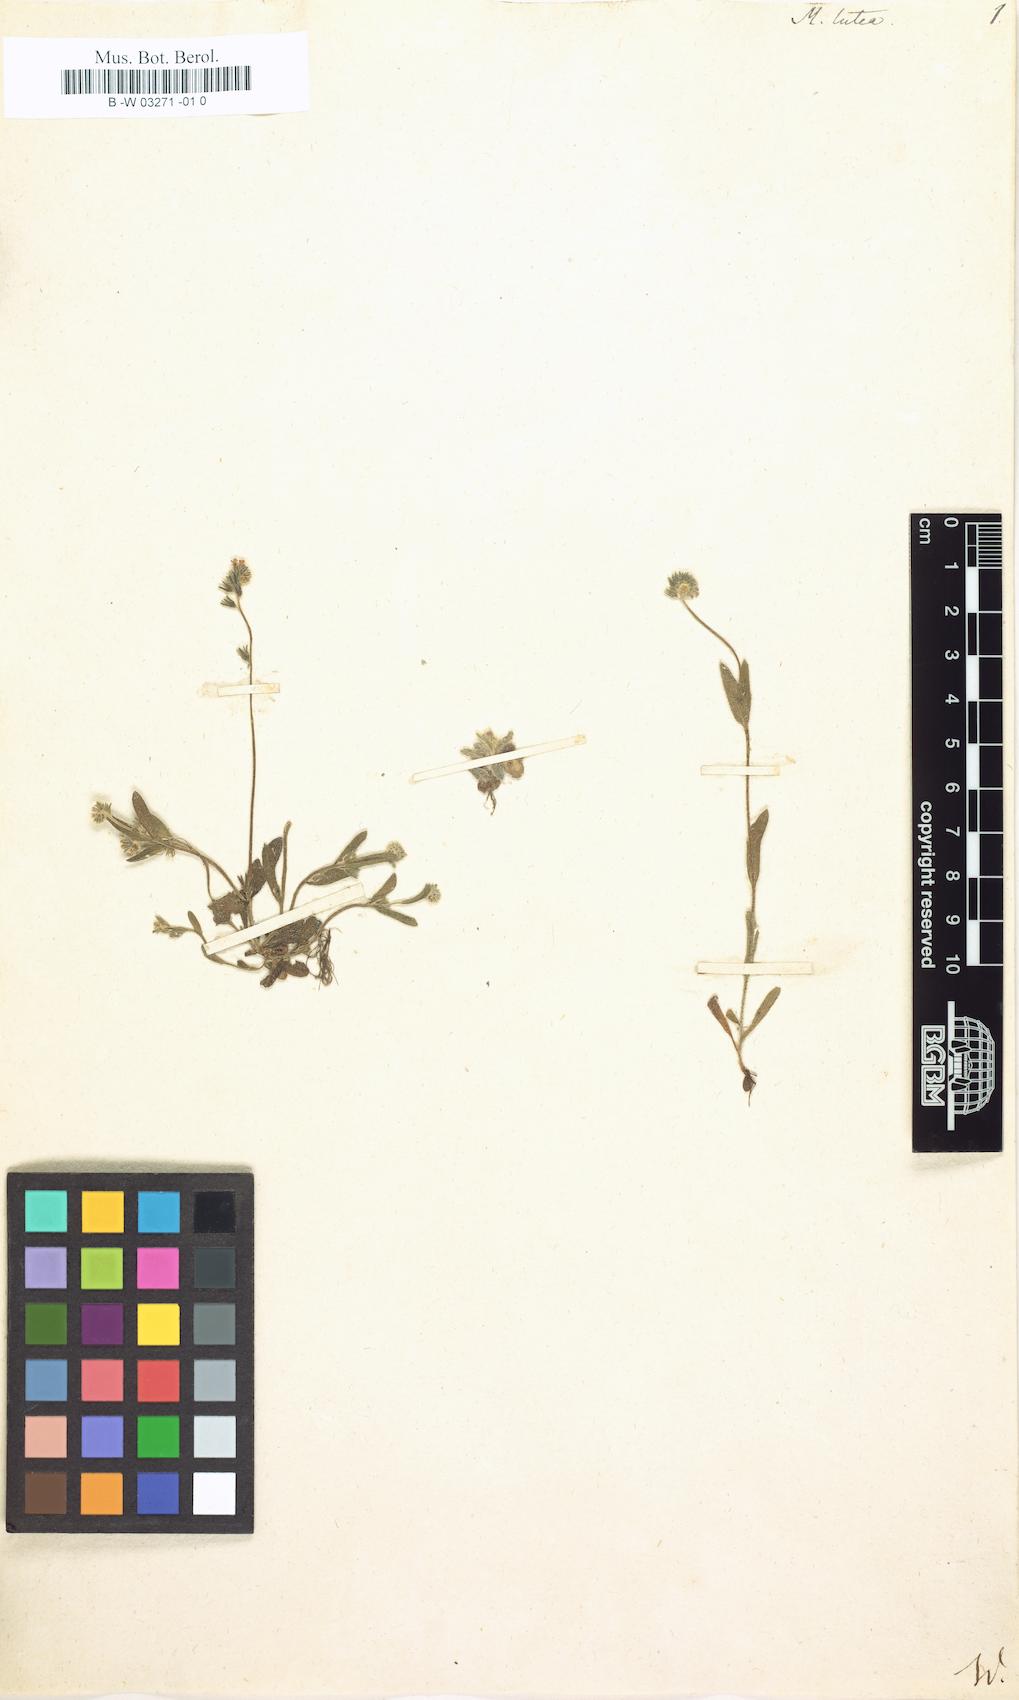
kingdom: Plantae
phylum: Tracheophyta
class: Magnoliopsida
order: Boraginales
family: Boraginaceae
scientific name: Boraginaceae
